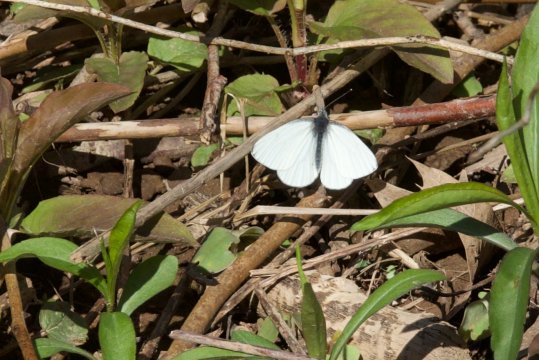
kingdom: Animalia
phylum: Arthropoda
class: Insecta
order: Lepidoptera
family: Pieridae
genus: Pieris
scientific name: Pieris oleracea
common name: Mustard White
